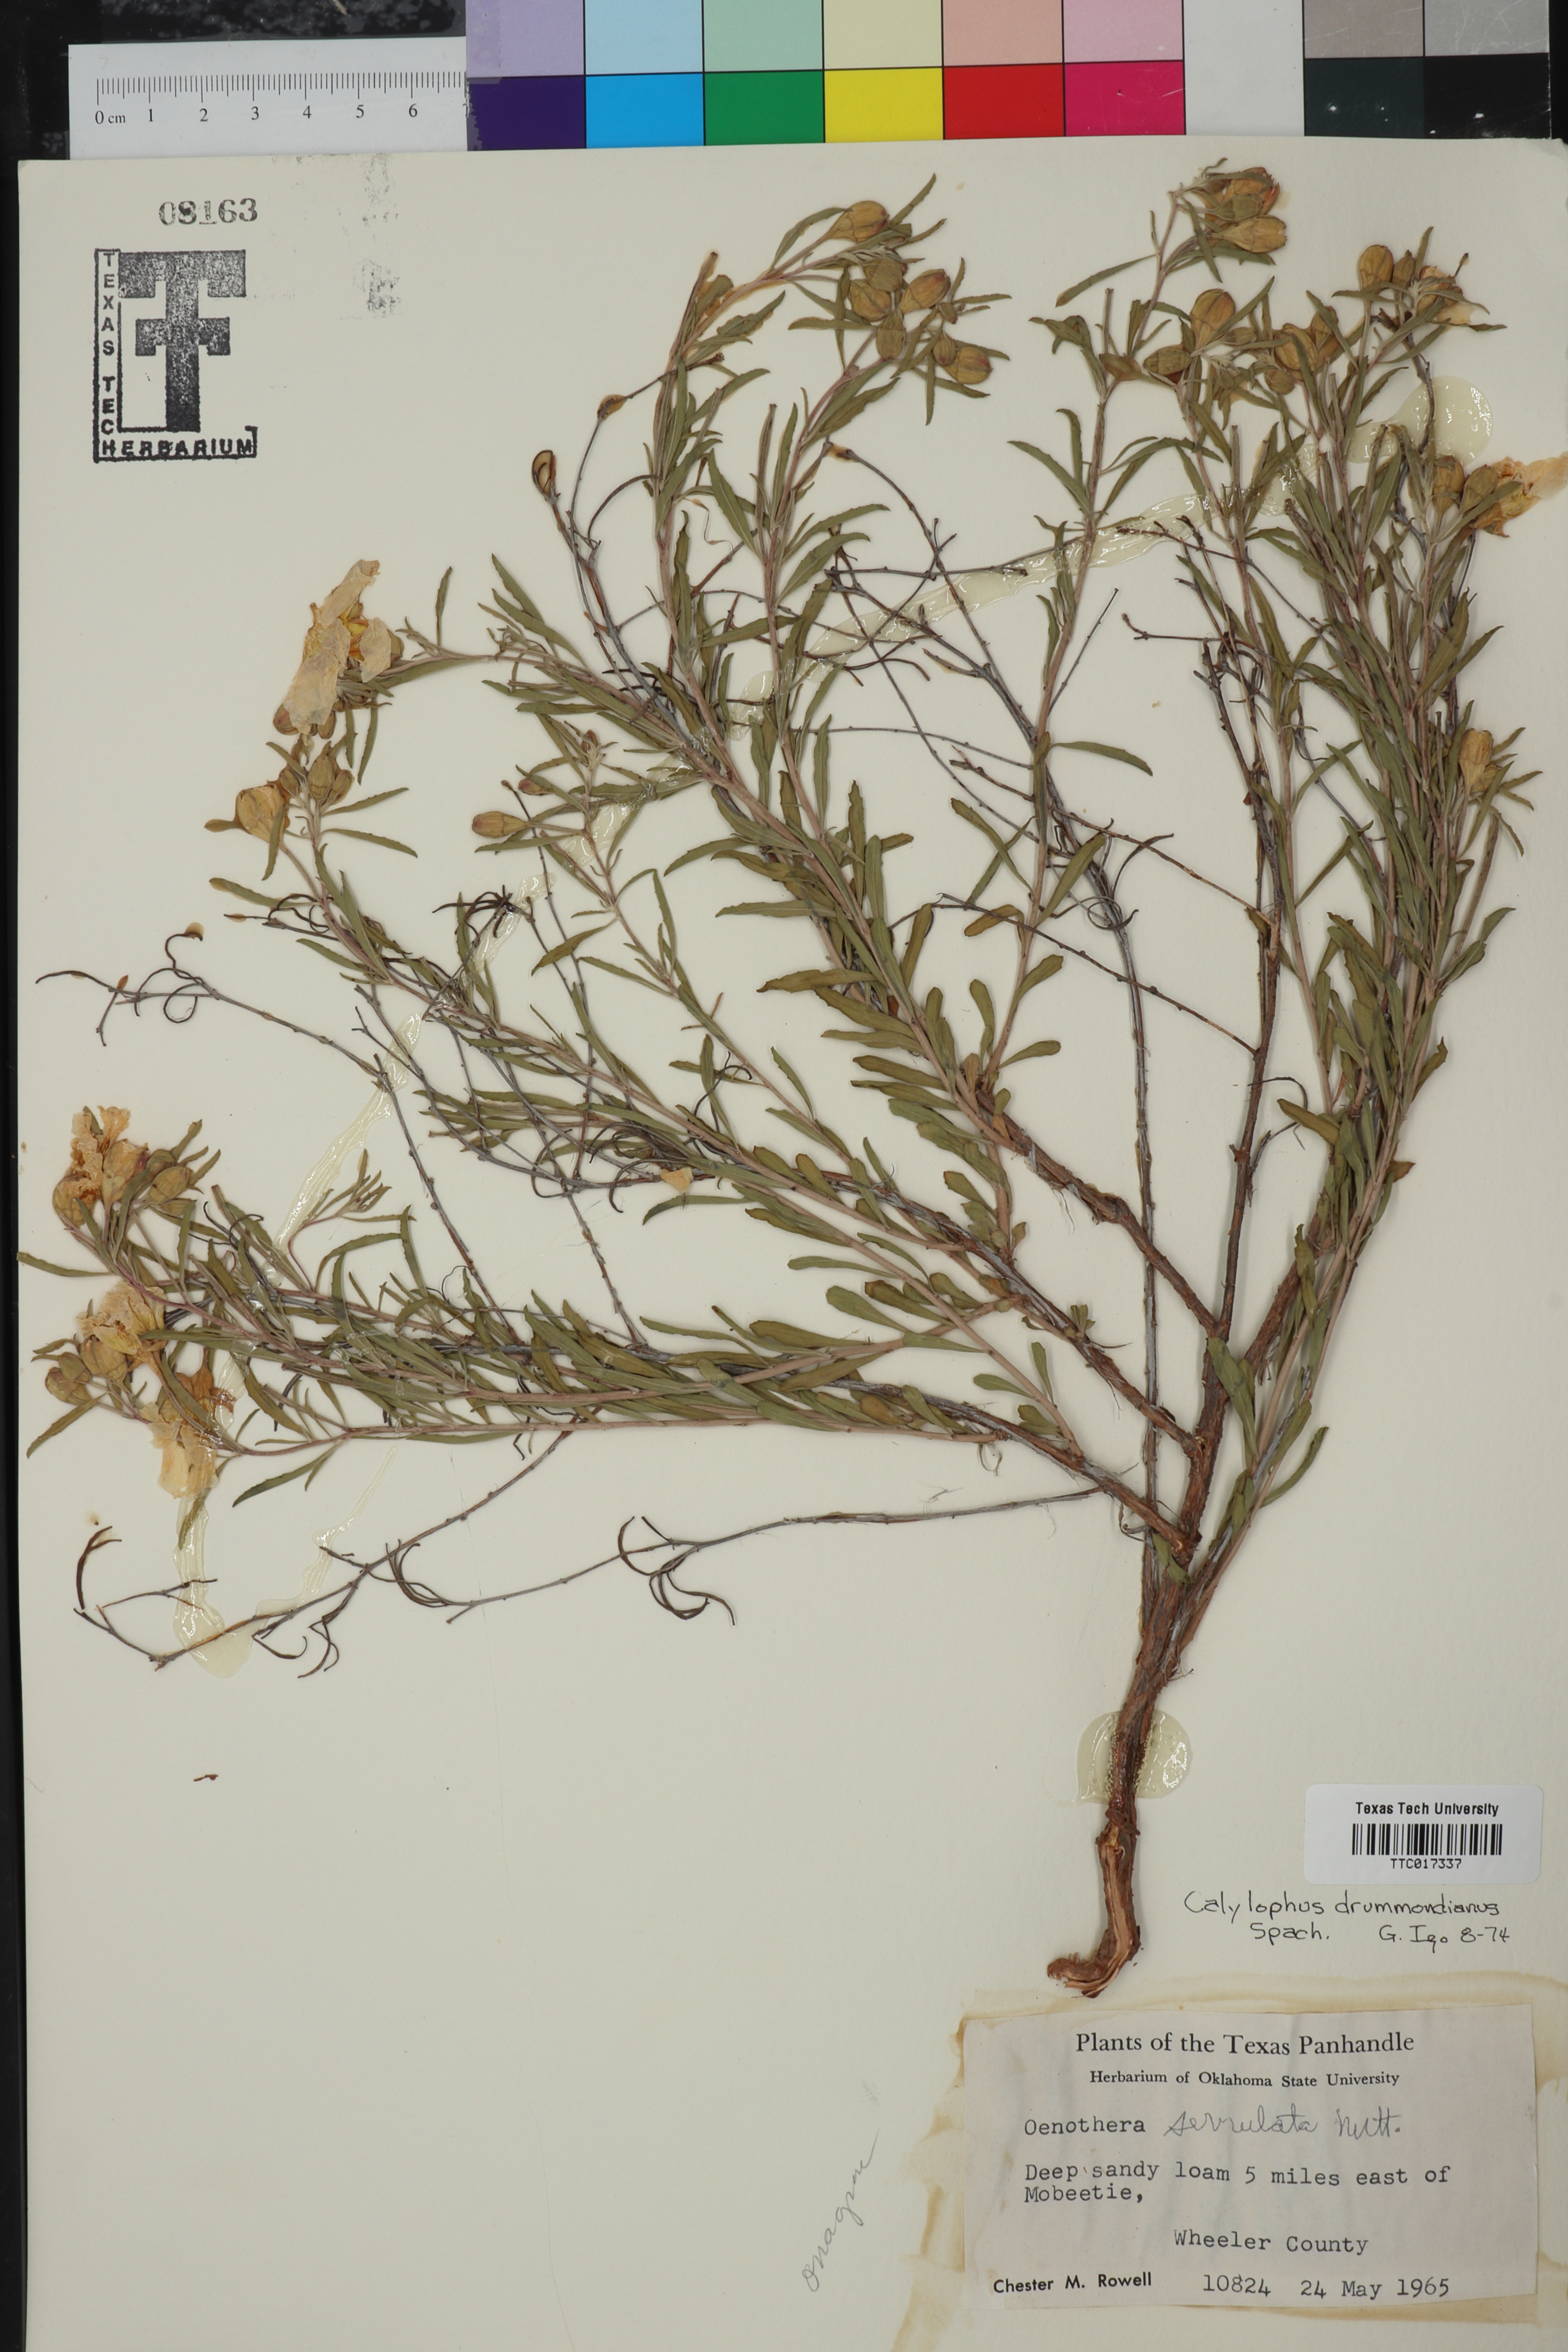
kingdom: Plantae
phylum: Tracheophyta
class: Magnoliopsida
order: Myrtales
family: Onagraceae
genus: Oenothera
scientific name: Oenothera serrulata
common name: Half-shrub calylophus
